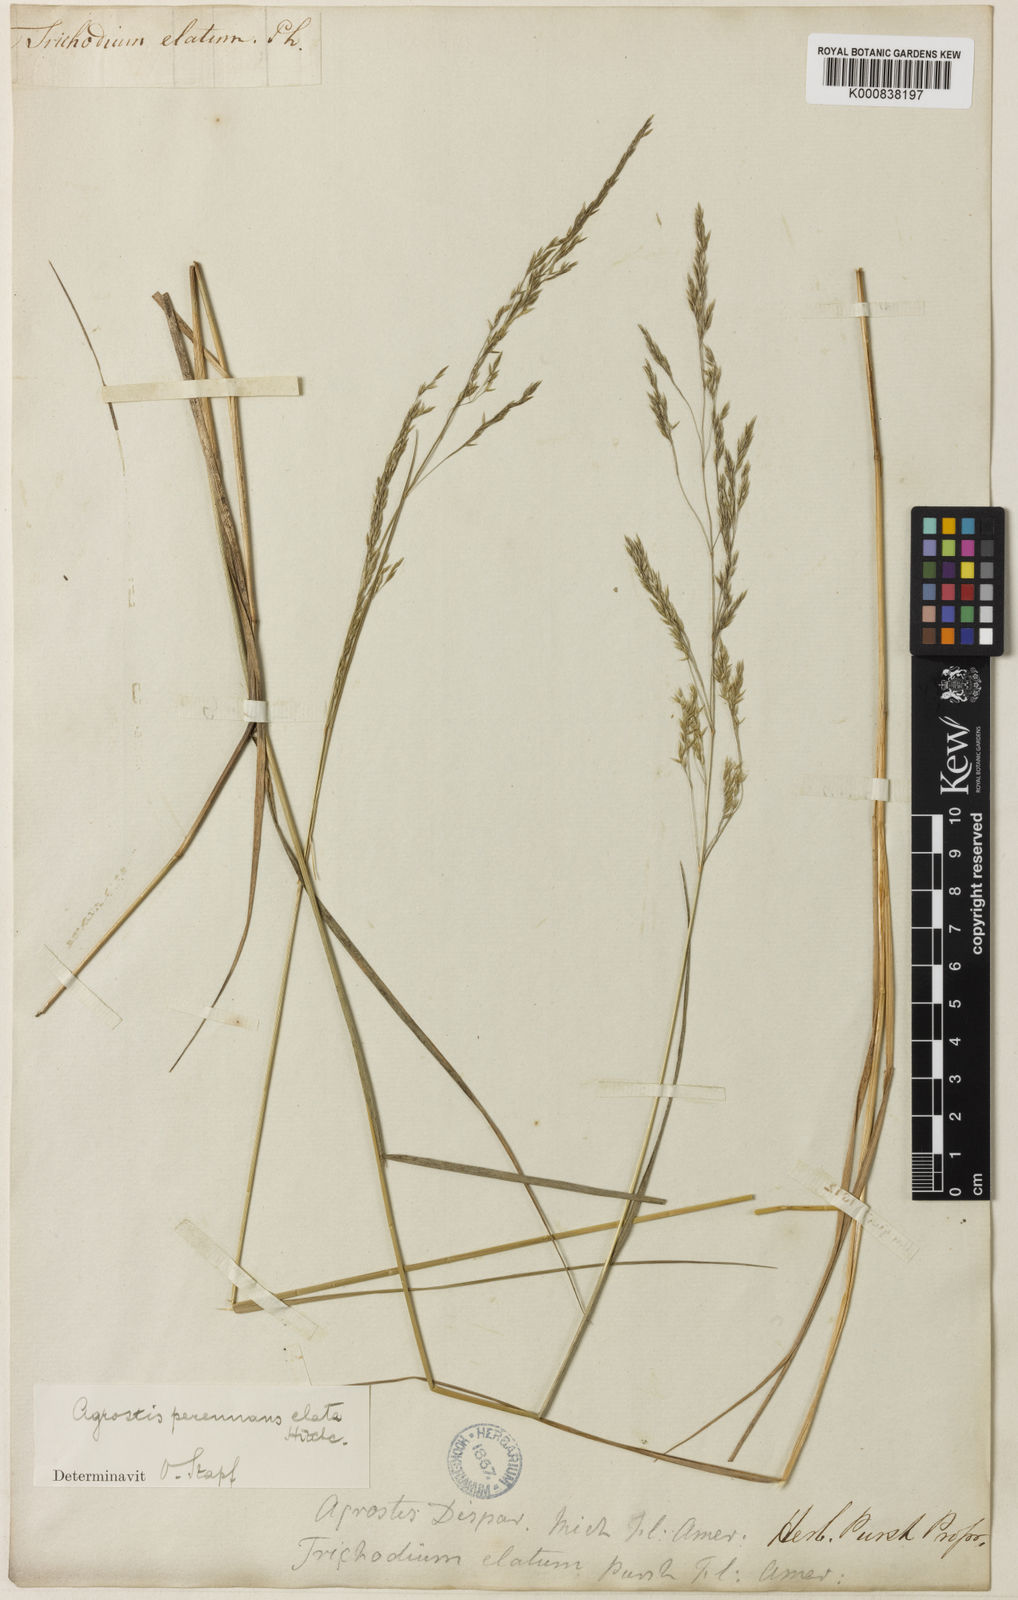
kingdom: Plantae
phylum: Tracheophyta
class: Liliopsida
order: Poales
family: Poaceae
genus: Agrostis
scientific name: Agrostis perennans
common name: Autumn bent
